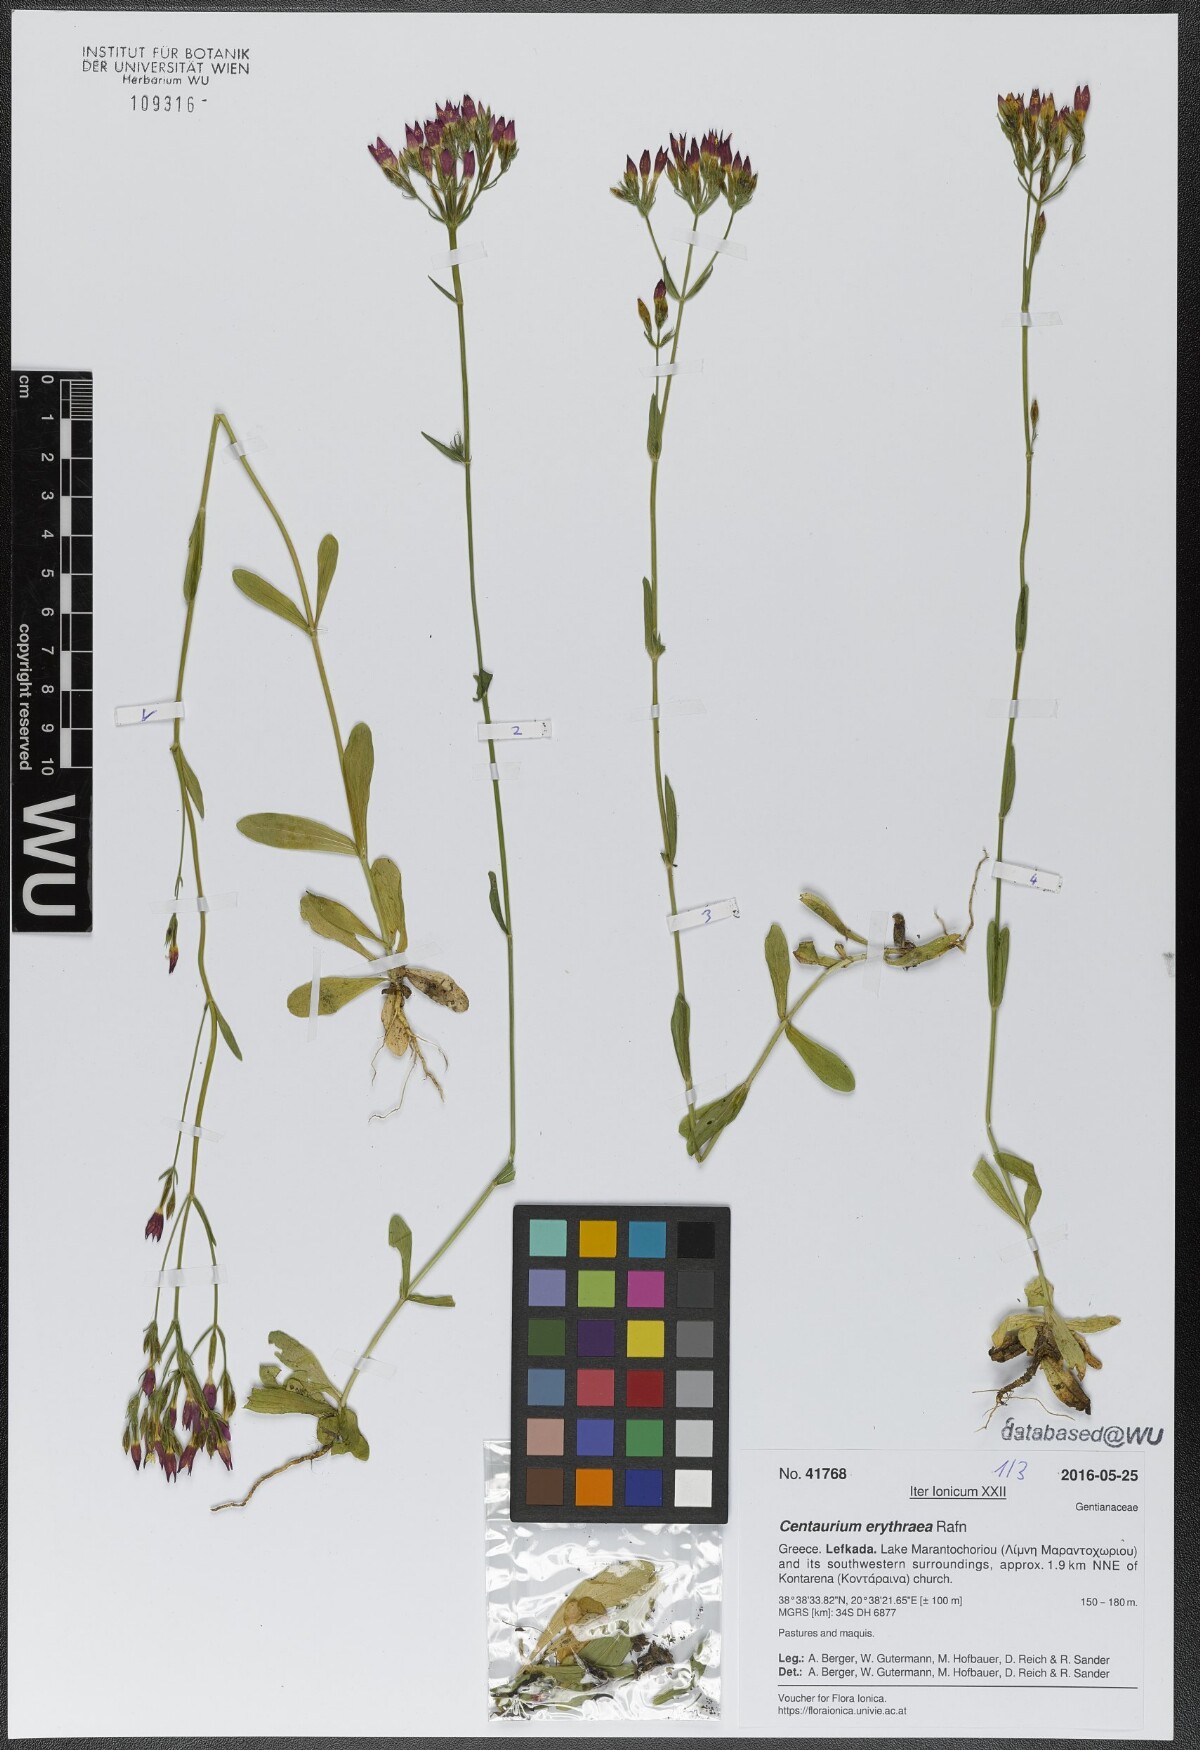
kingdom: Plantae
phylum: Tracheophyta
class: Magnoliopsida
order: Gentianales
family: Gentianaceae
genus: Centaurium
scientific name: Centaurium erythraea
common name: Common centaury
